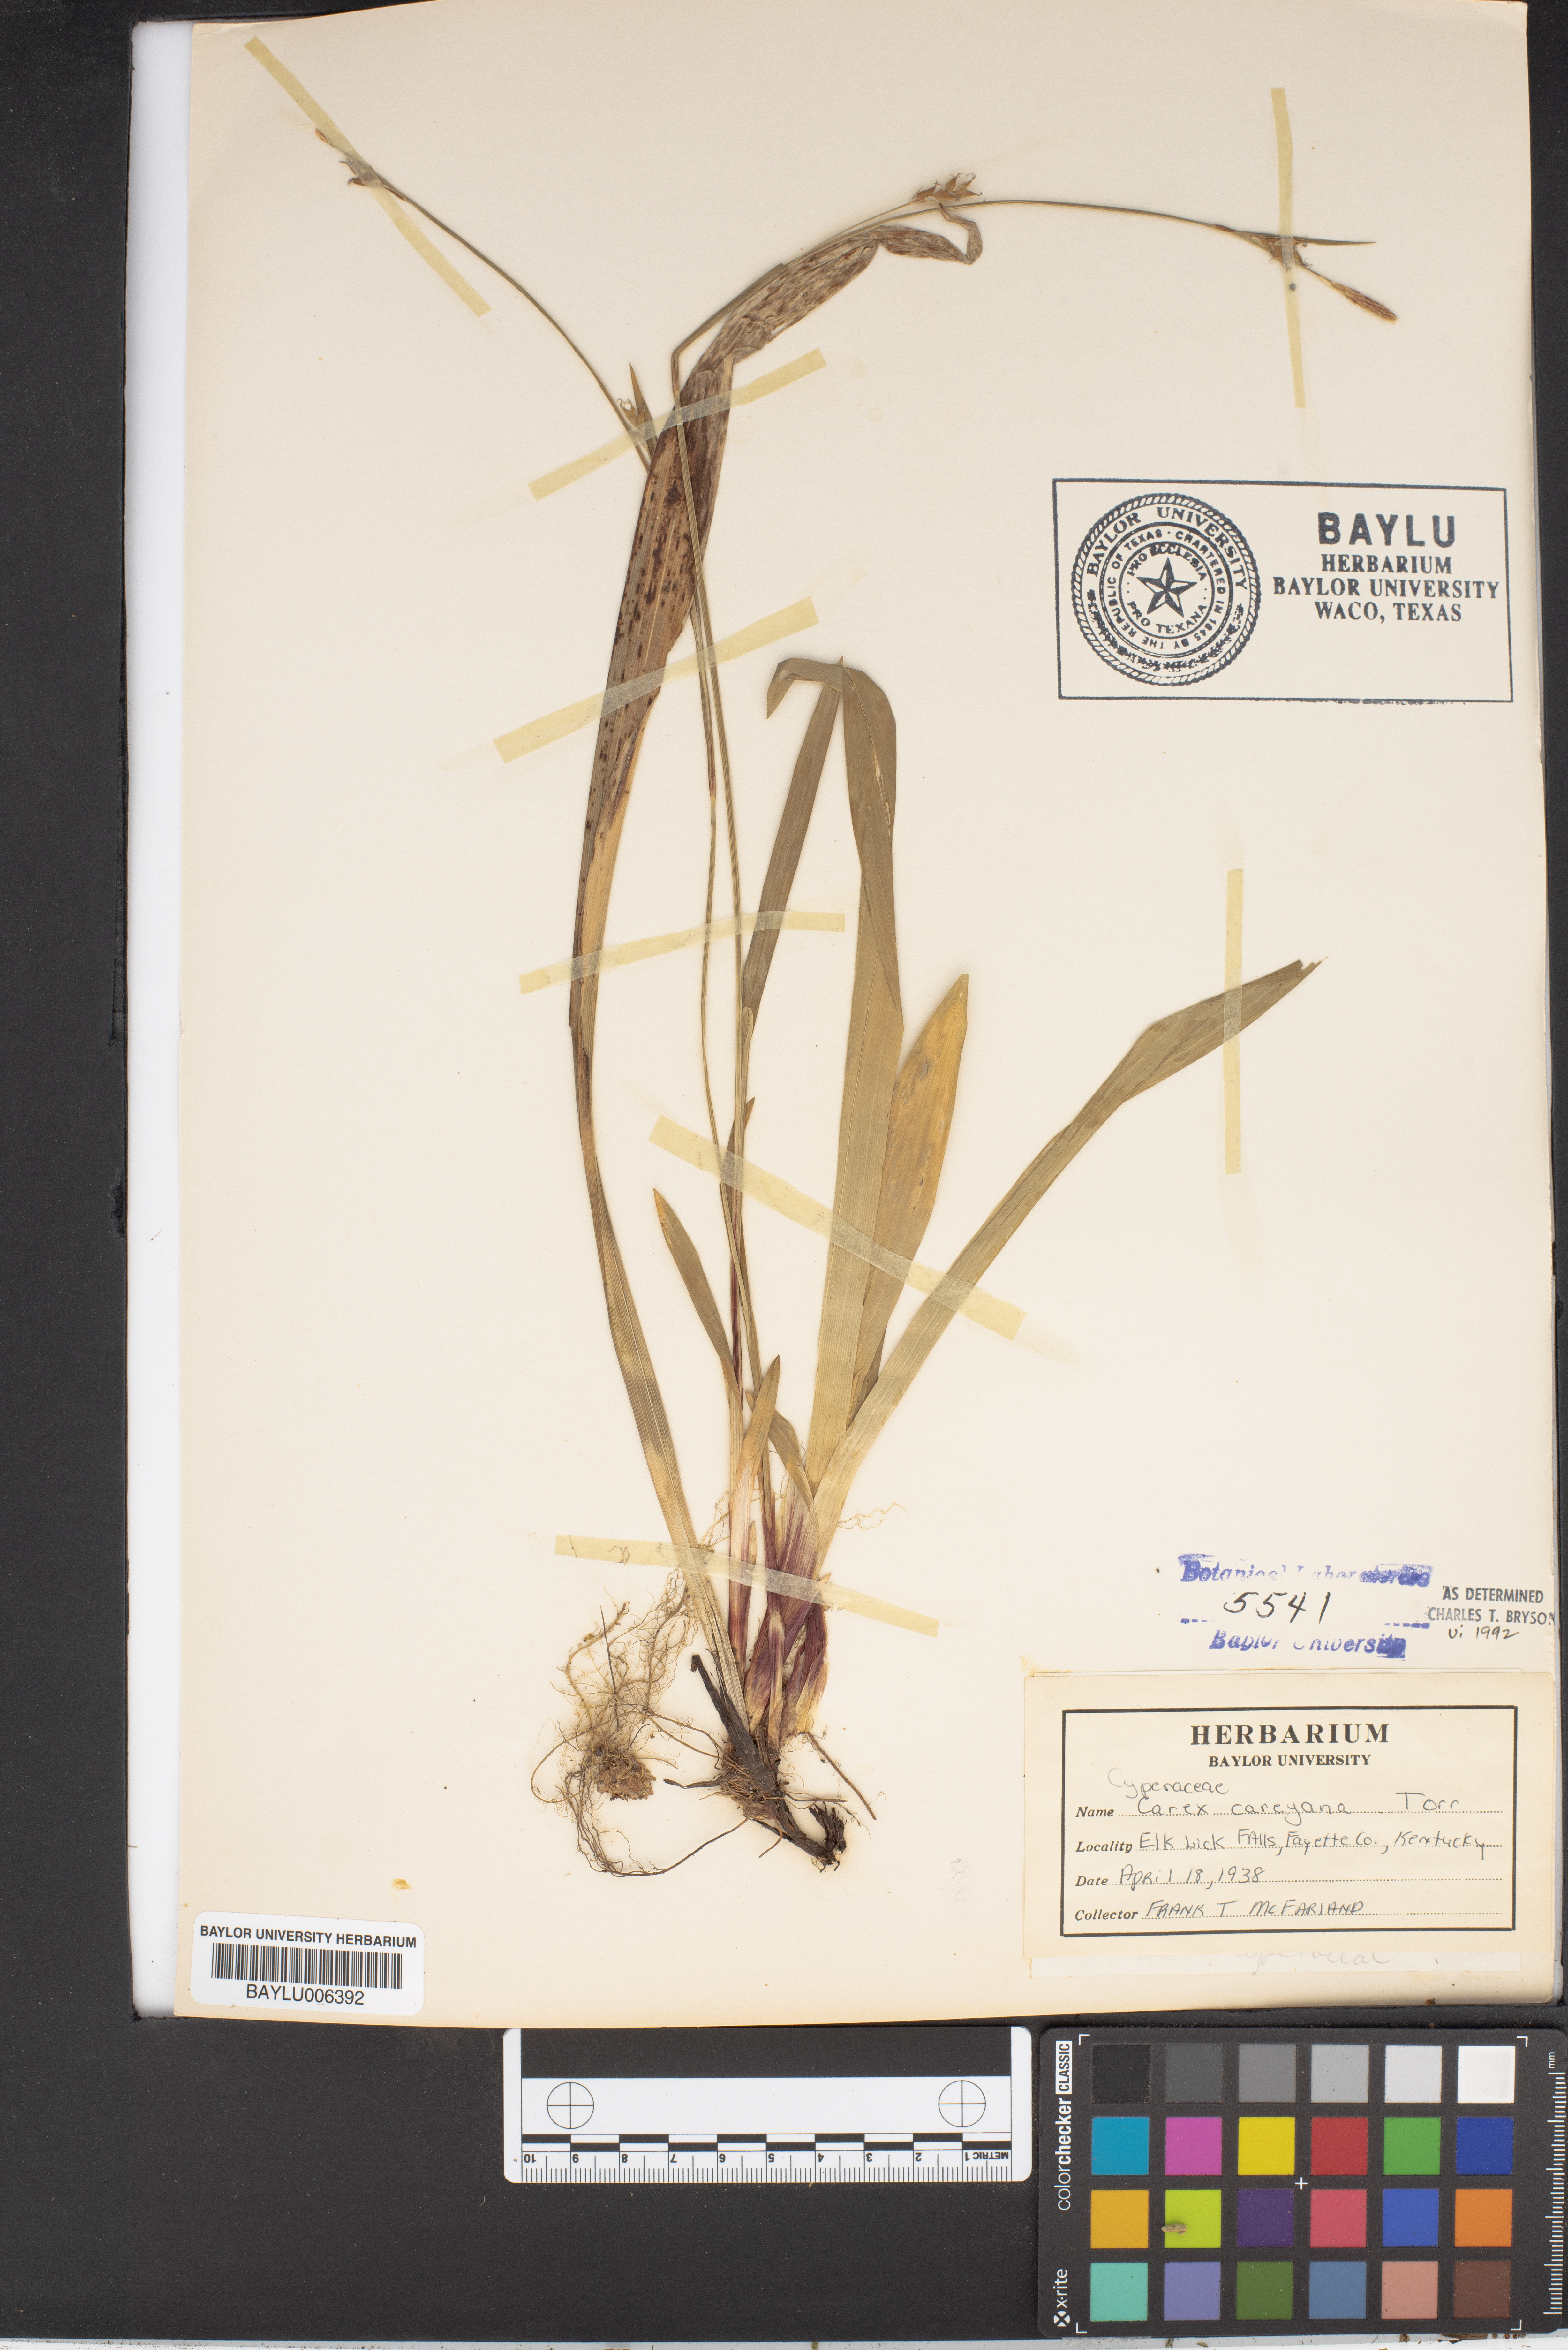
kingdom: Plantae
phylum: Tracheophyta
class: Liliopsida
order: Poales
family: Cyperaceae
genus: Carex
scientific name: Carex careyana
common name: Carey's sedge
